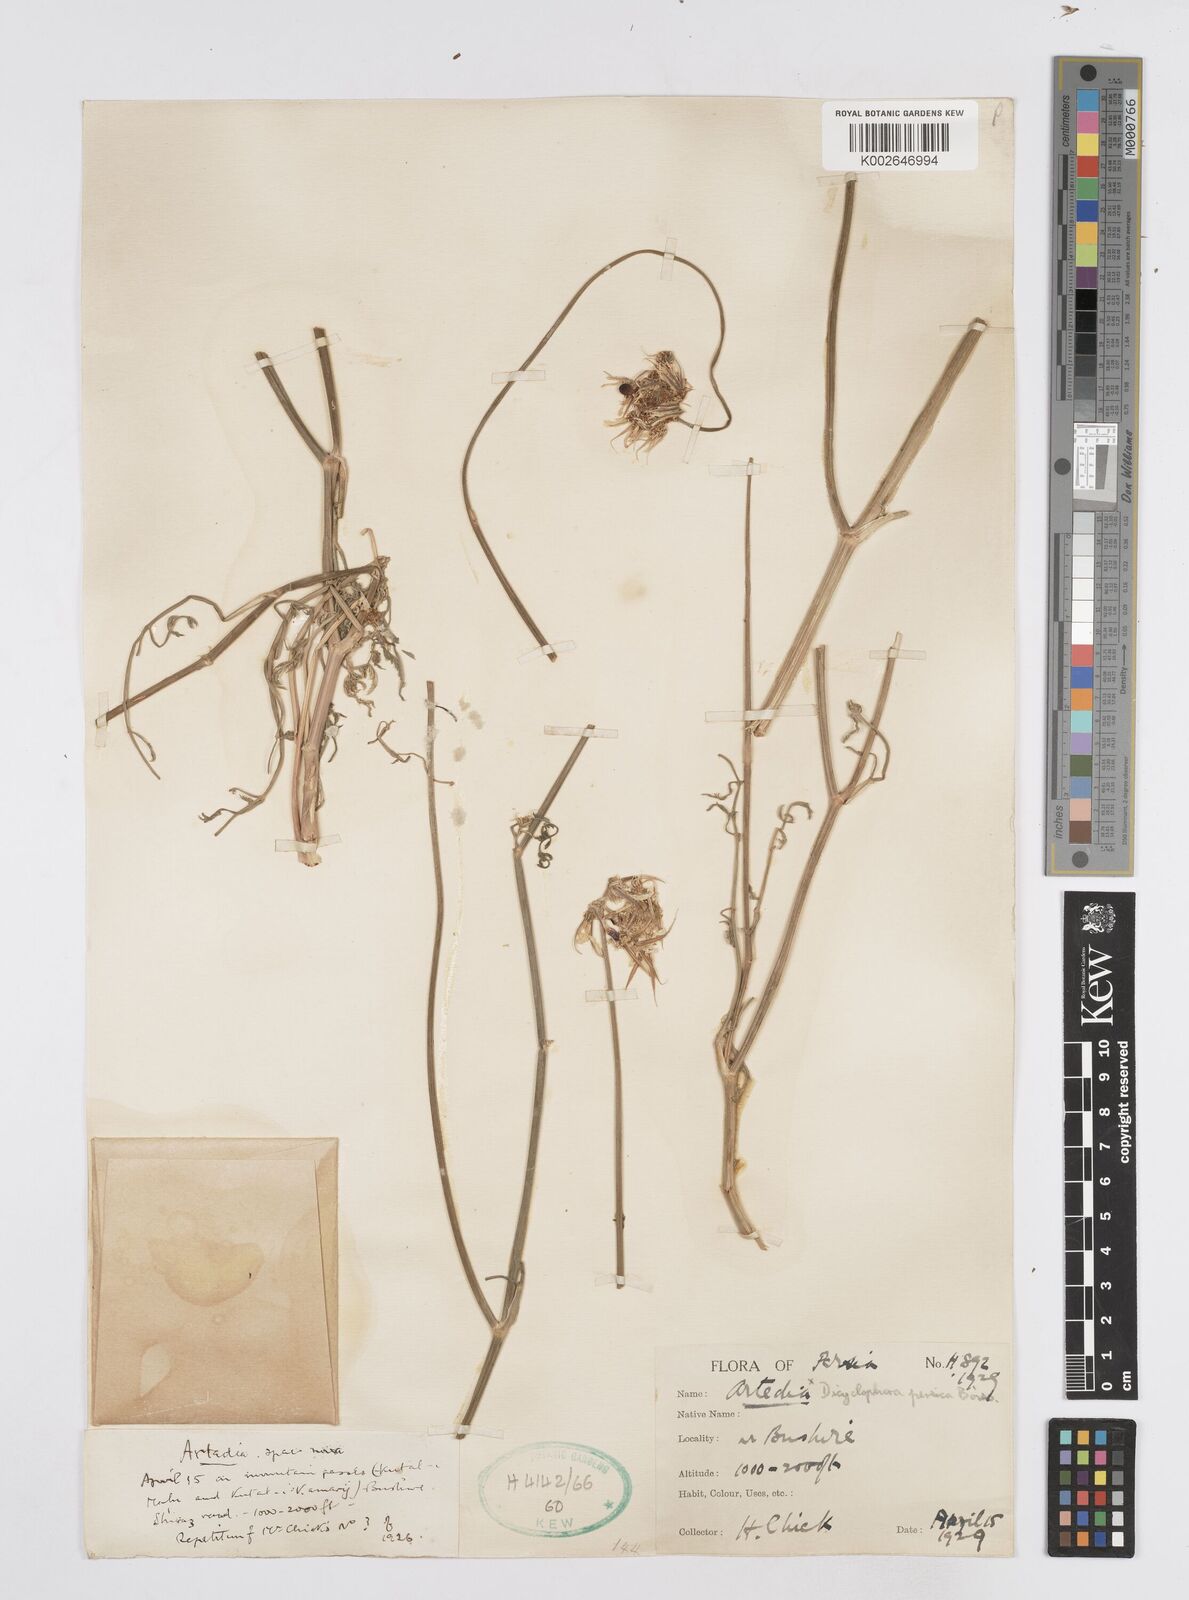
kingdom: Plantae
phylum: Tracheophyta
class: Magnoliopsida
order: Apiales
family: Apiaceae
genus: Dicyclophora
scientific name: Dicyclophora persica
